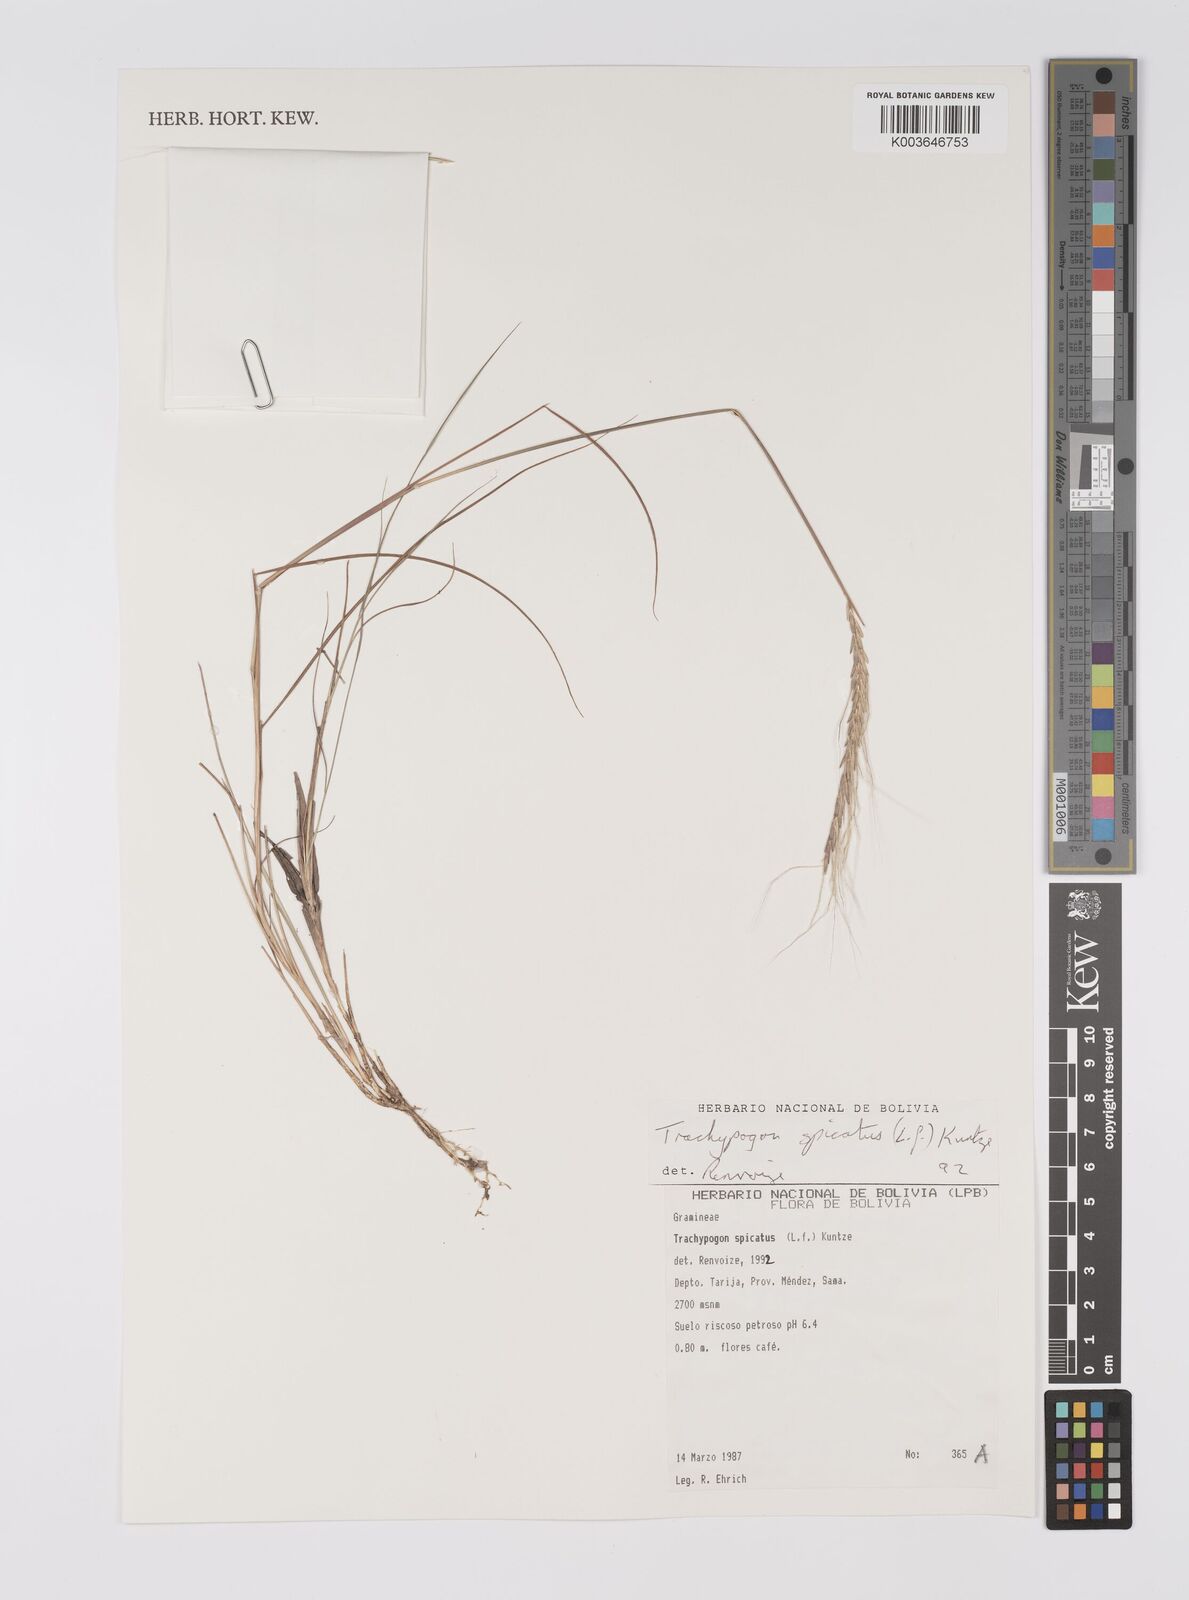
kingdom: Plantae
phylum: Tracheophyta
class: Liliopsida
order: Poales
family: Poaceae
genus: Trachypogon
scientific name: Trachypogon spicatus
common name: Crinkle-awn
